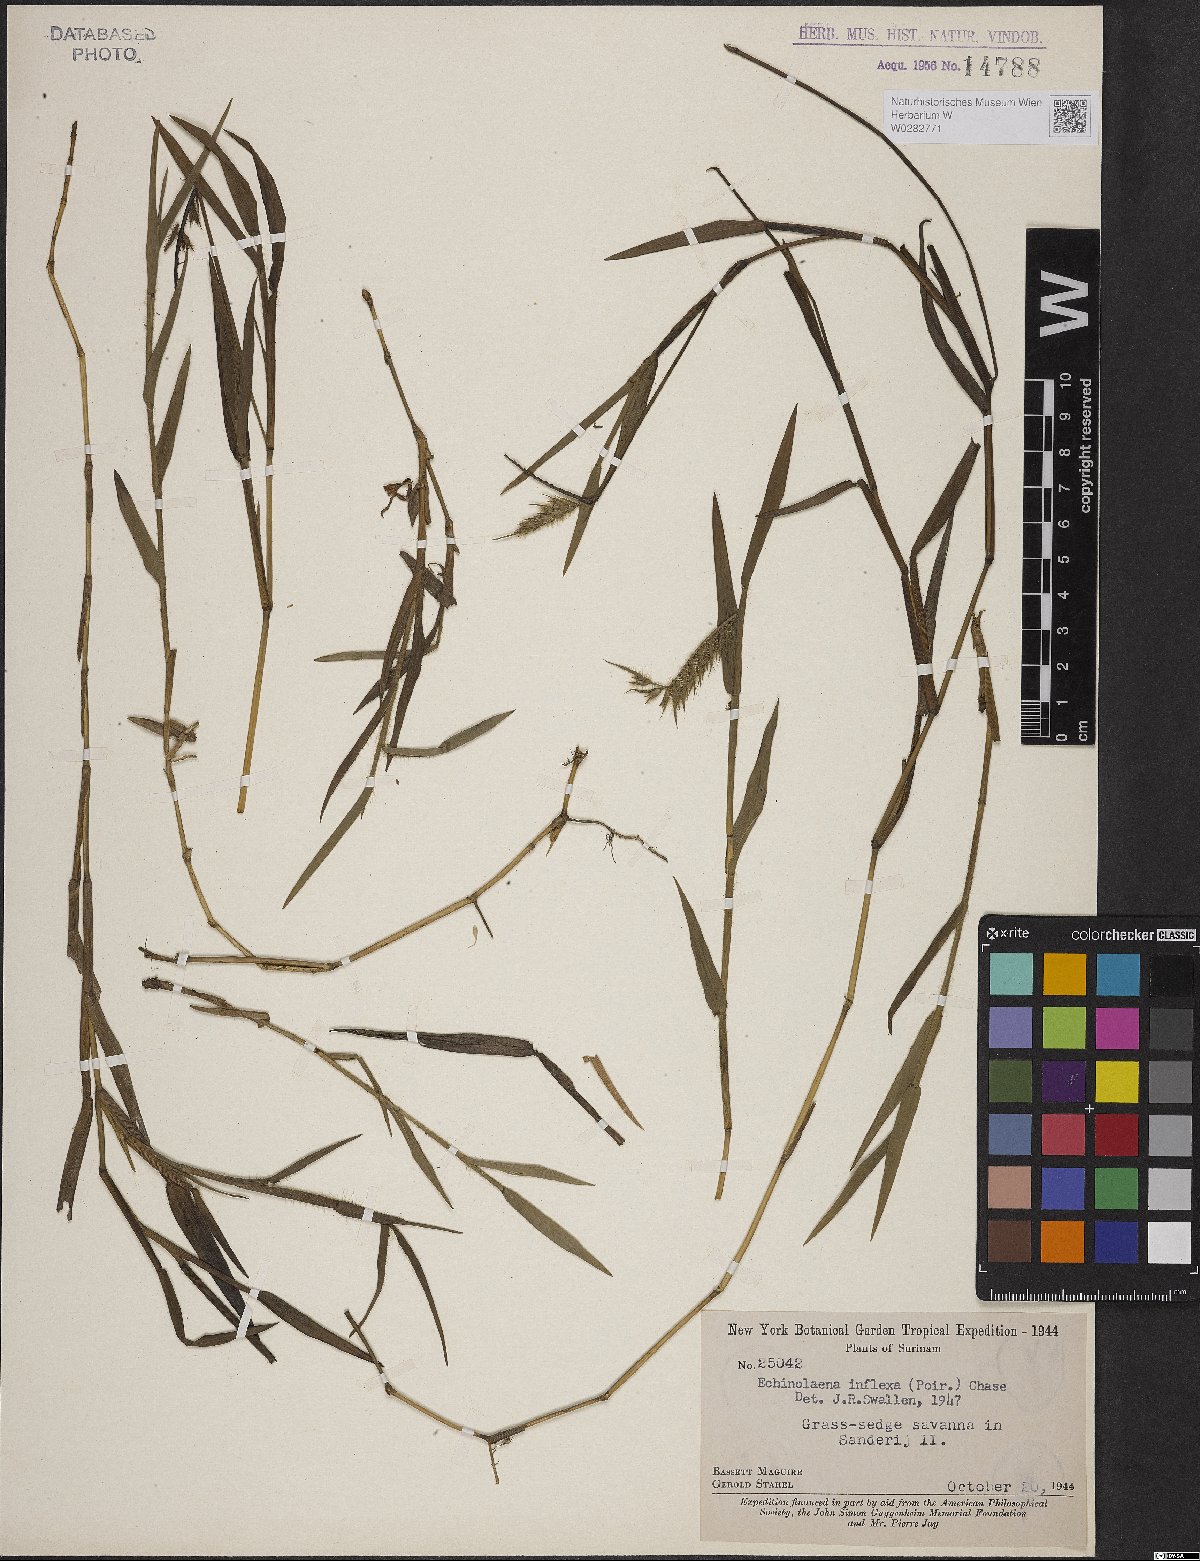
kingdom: Plantae
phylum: Tracheophyta
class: Liliopsida
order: Poales
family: Poaceae
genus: Echinolaena
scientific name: Echinolaena inflexa
